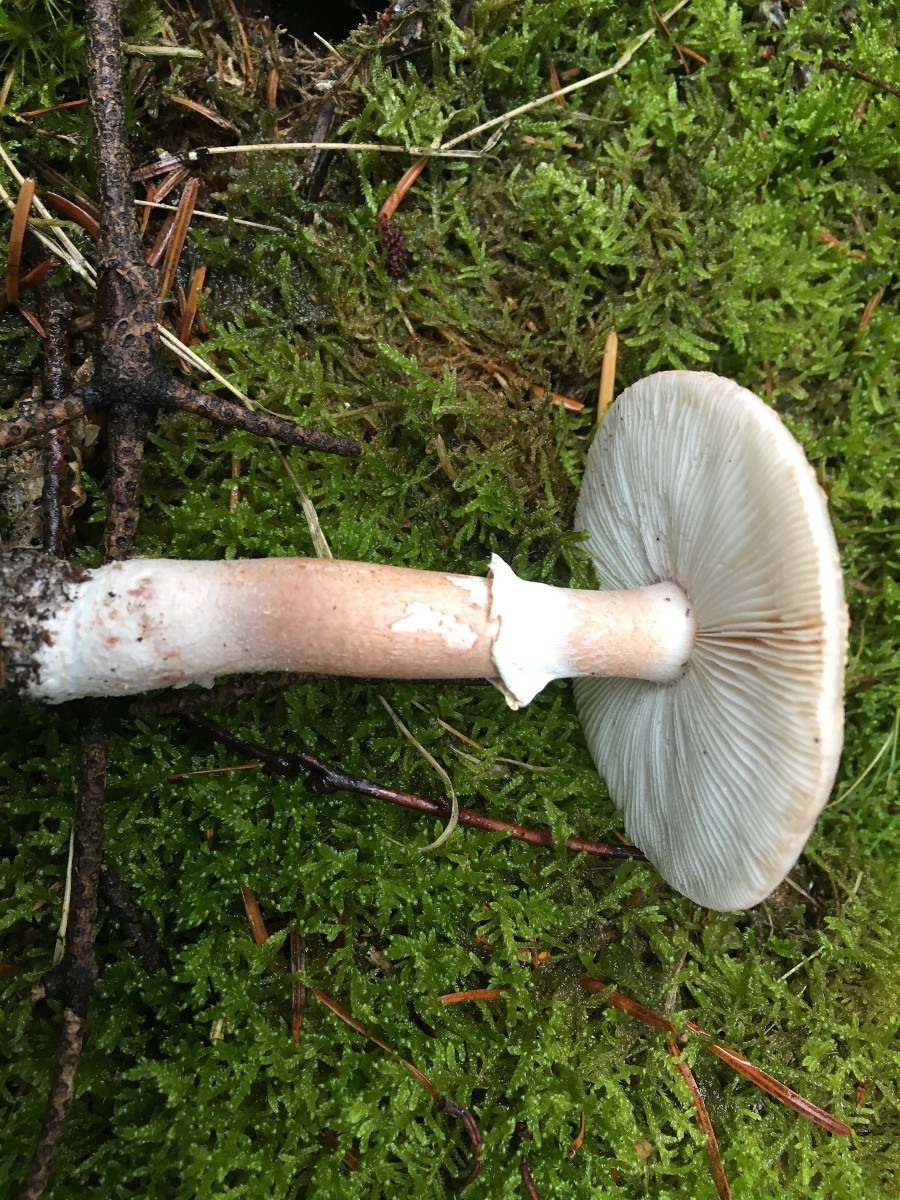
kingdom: Fungi
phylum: Basidiomycota
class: Agaricomycetes
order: Agaricales
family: Amanitaceae
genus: Amanita
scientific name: Amanita citrina
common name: kugleknoldet fluesvamp
